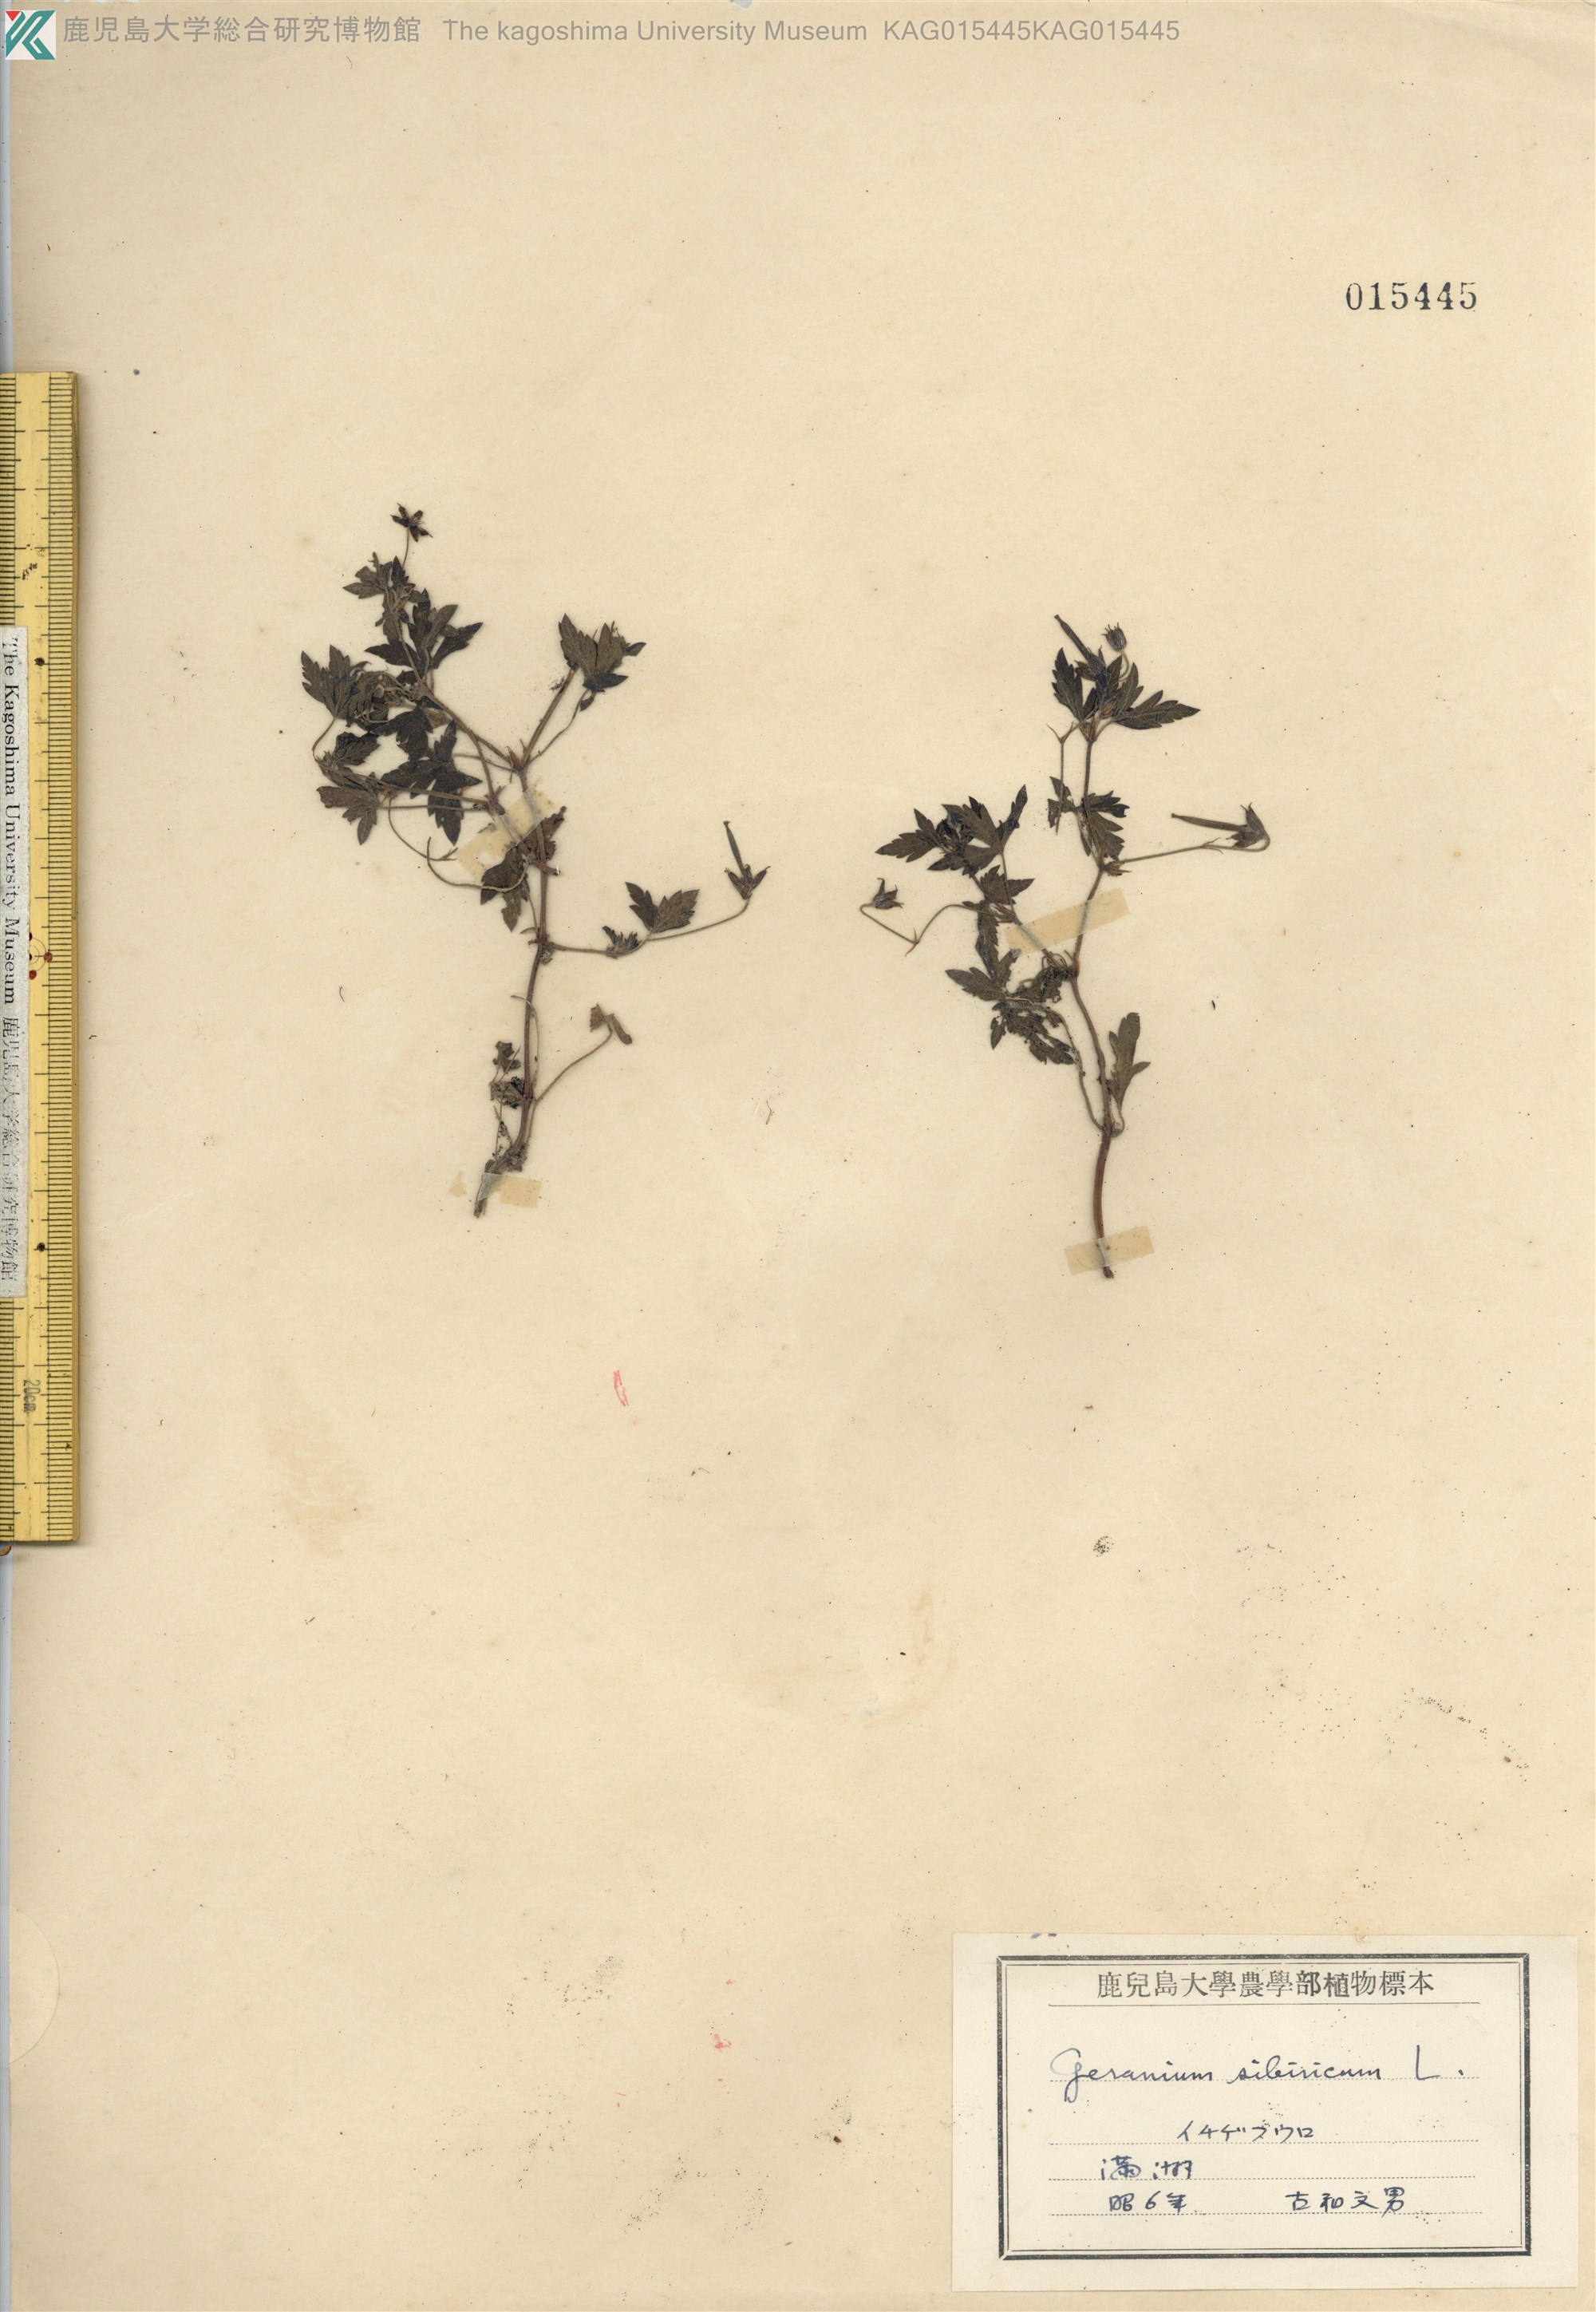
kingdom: Plantae
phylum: Tracheophyta
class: Magnoliopsida
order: Geraniales
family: Geraniaceae
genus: Geranium
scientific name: Geranium sibiricum
